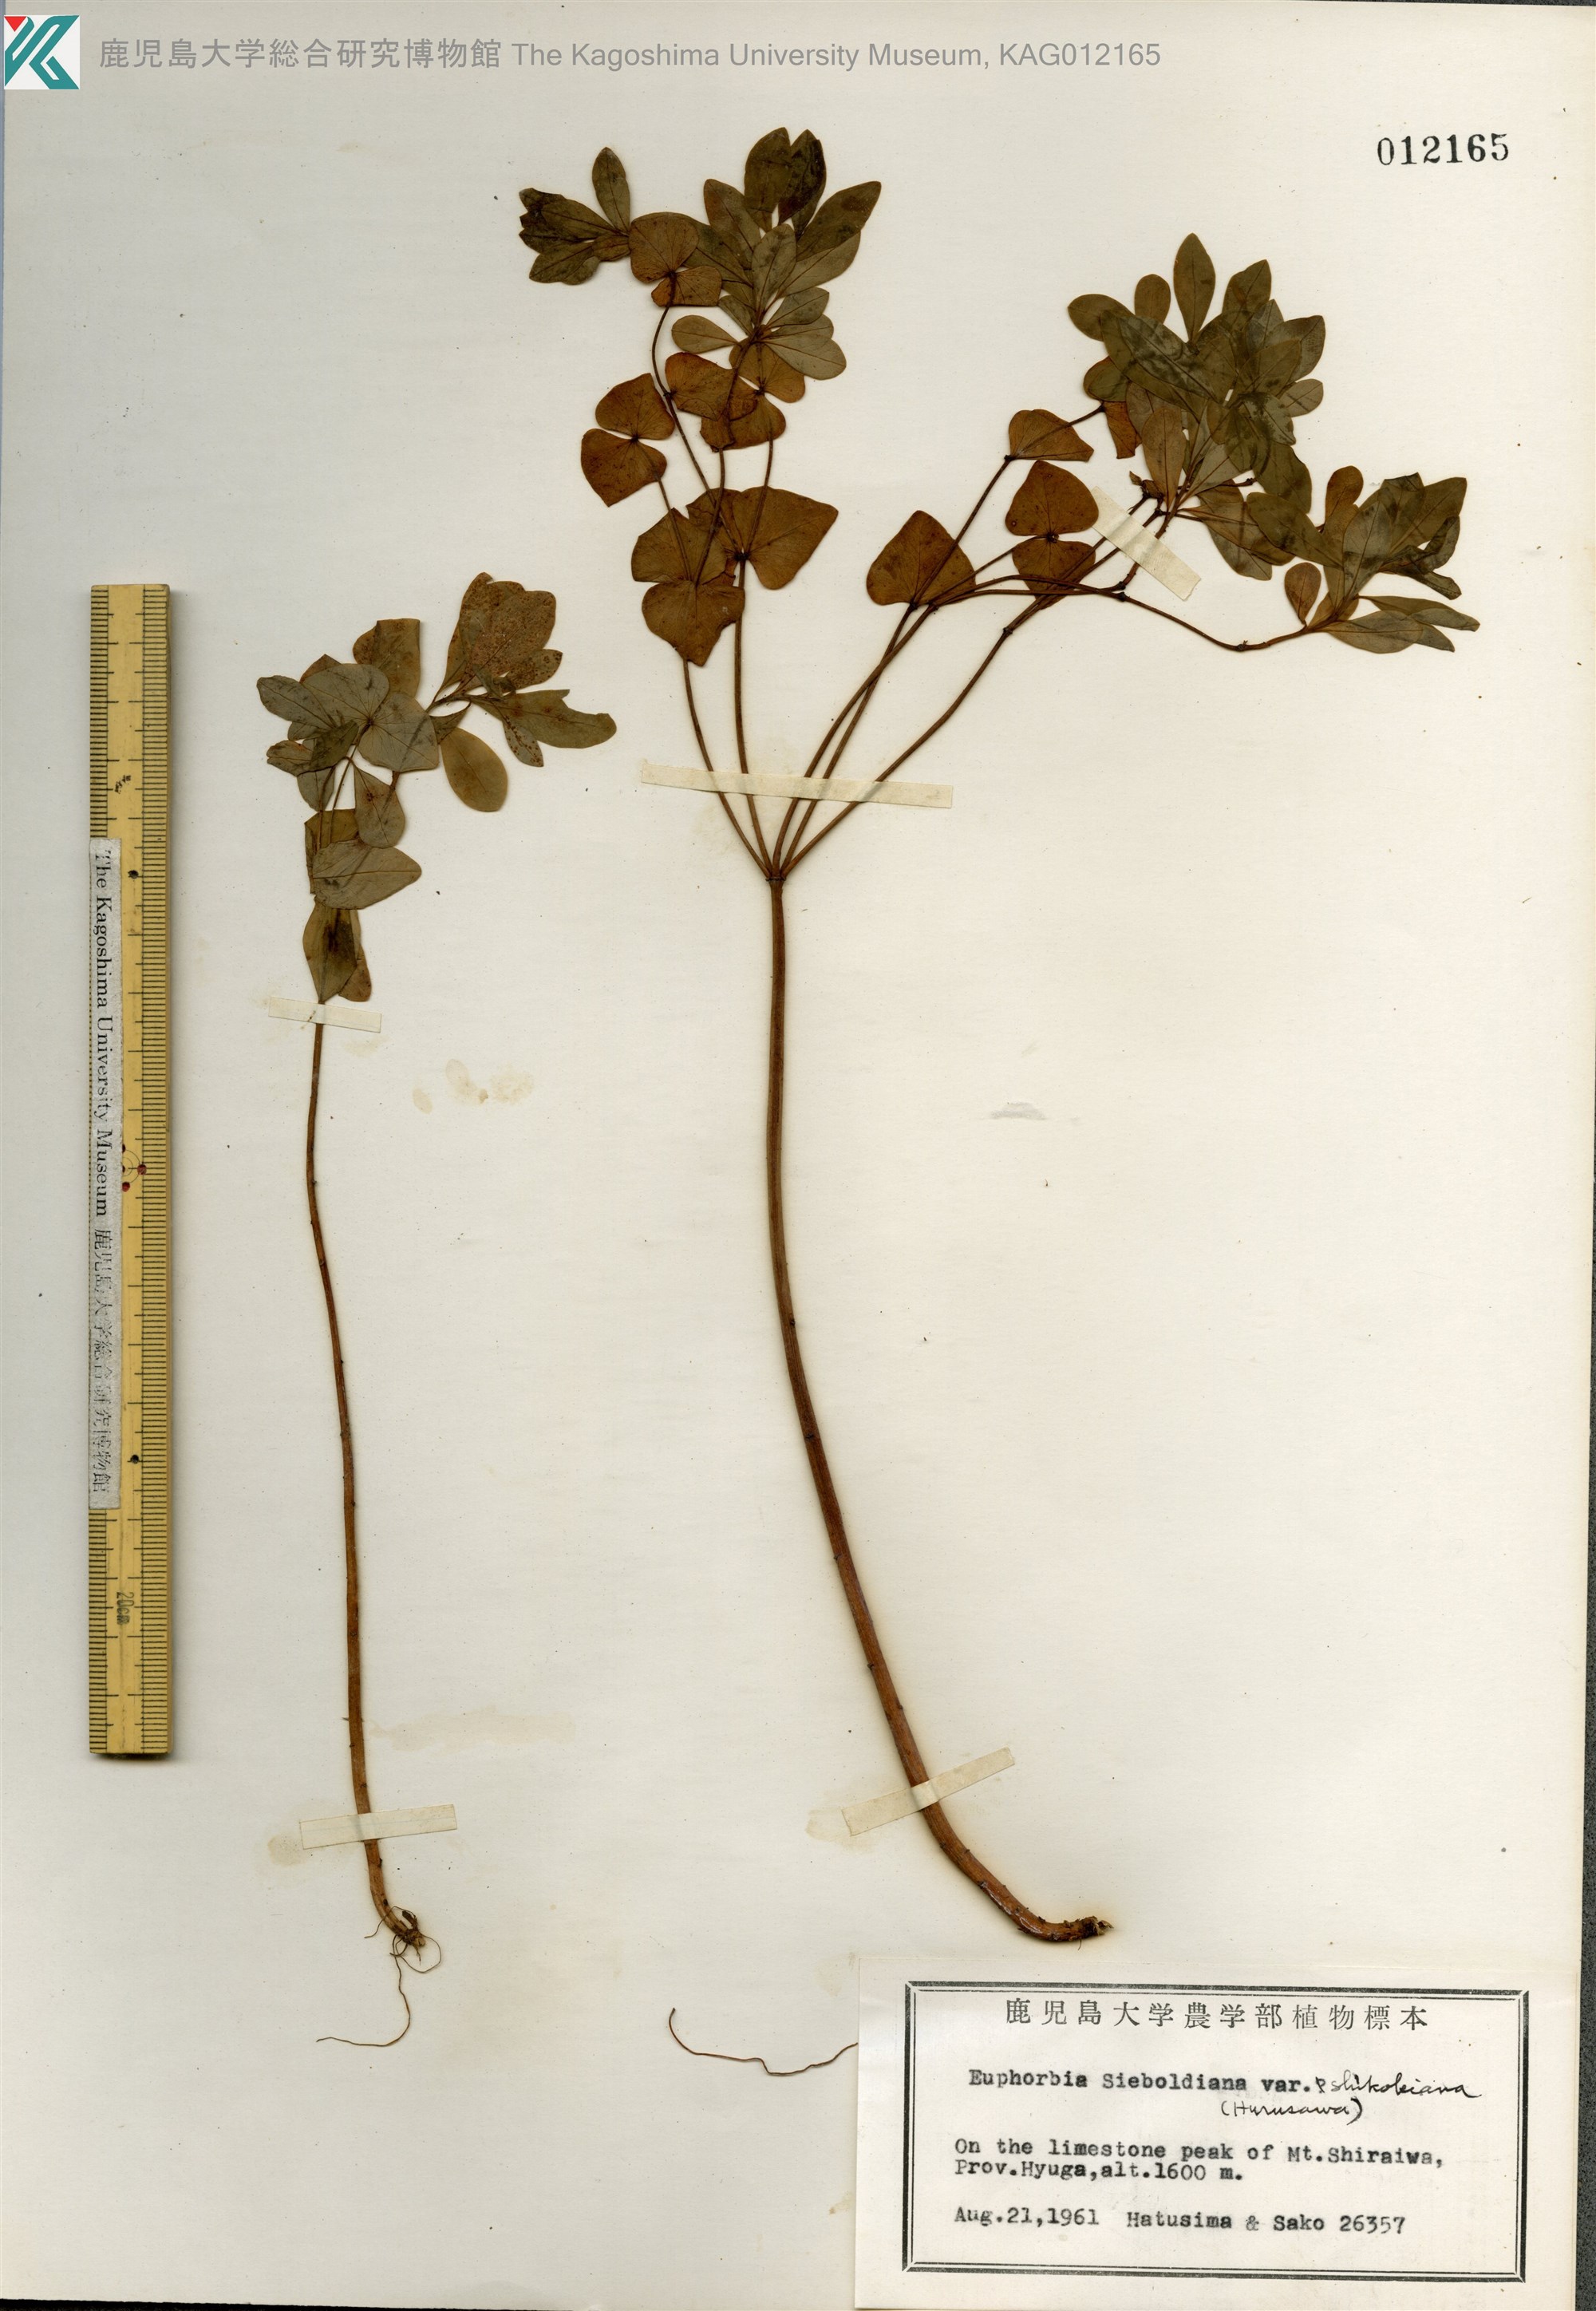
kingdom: Plantae
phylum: Tracheophyta
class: Magnoliopsida
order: Malpighiales
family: Euphorbiaceae
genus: Euphorbia
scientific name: Euphorbia sieboldiana
